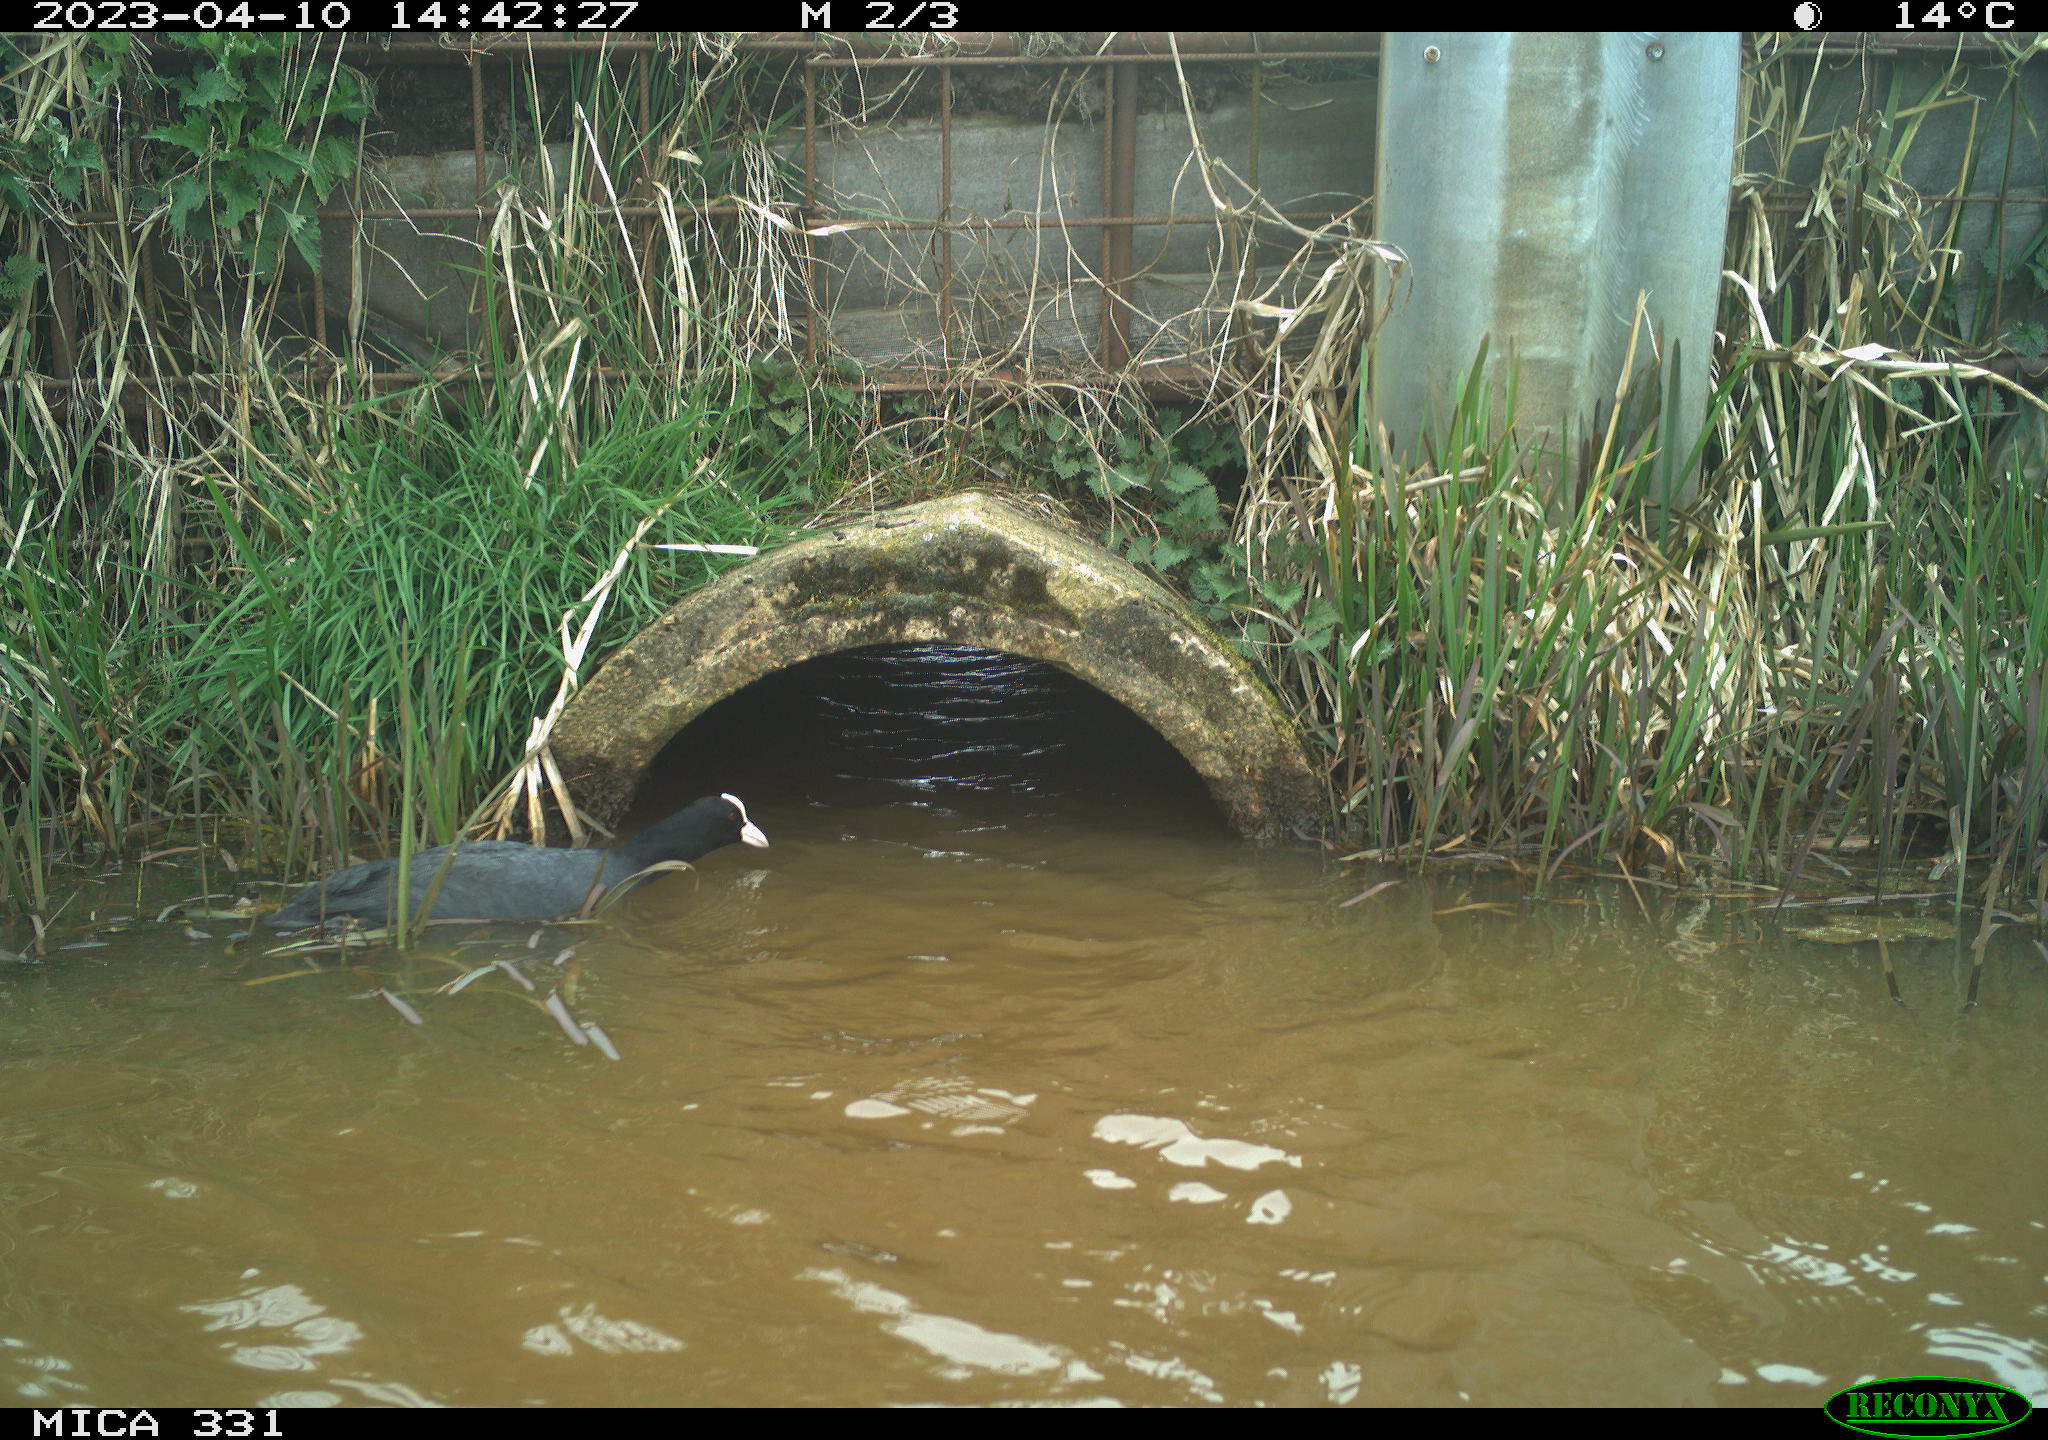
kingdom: Animalia
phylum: Chordata
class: Aves
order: Gruiformes
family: Rallidae
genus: Fulica
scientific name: Fulica atra
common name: Eurasian coot
